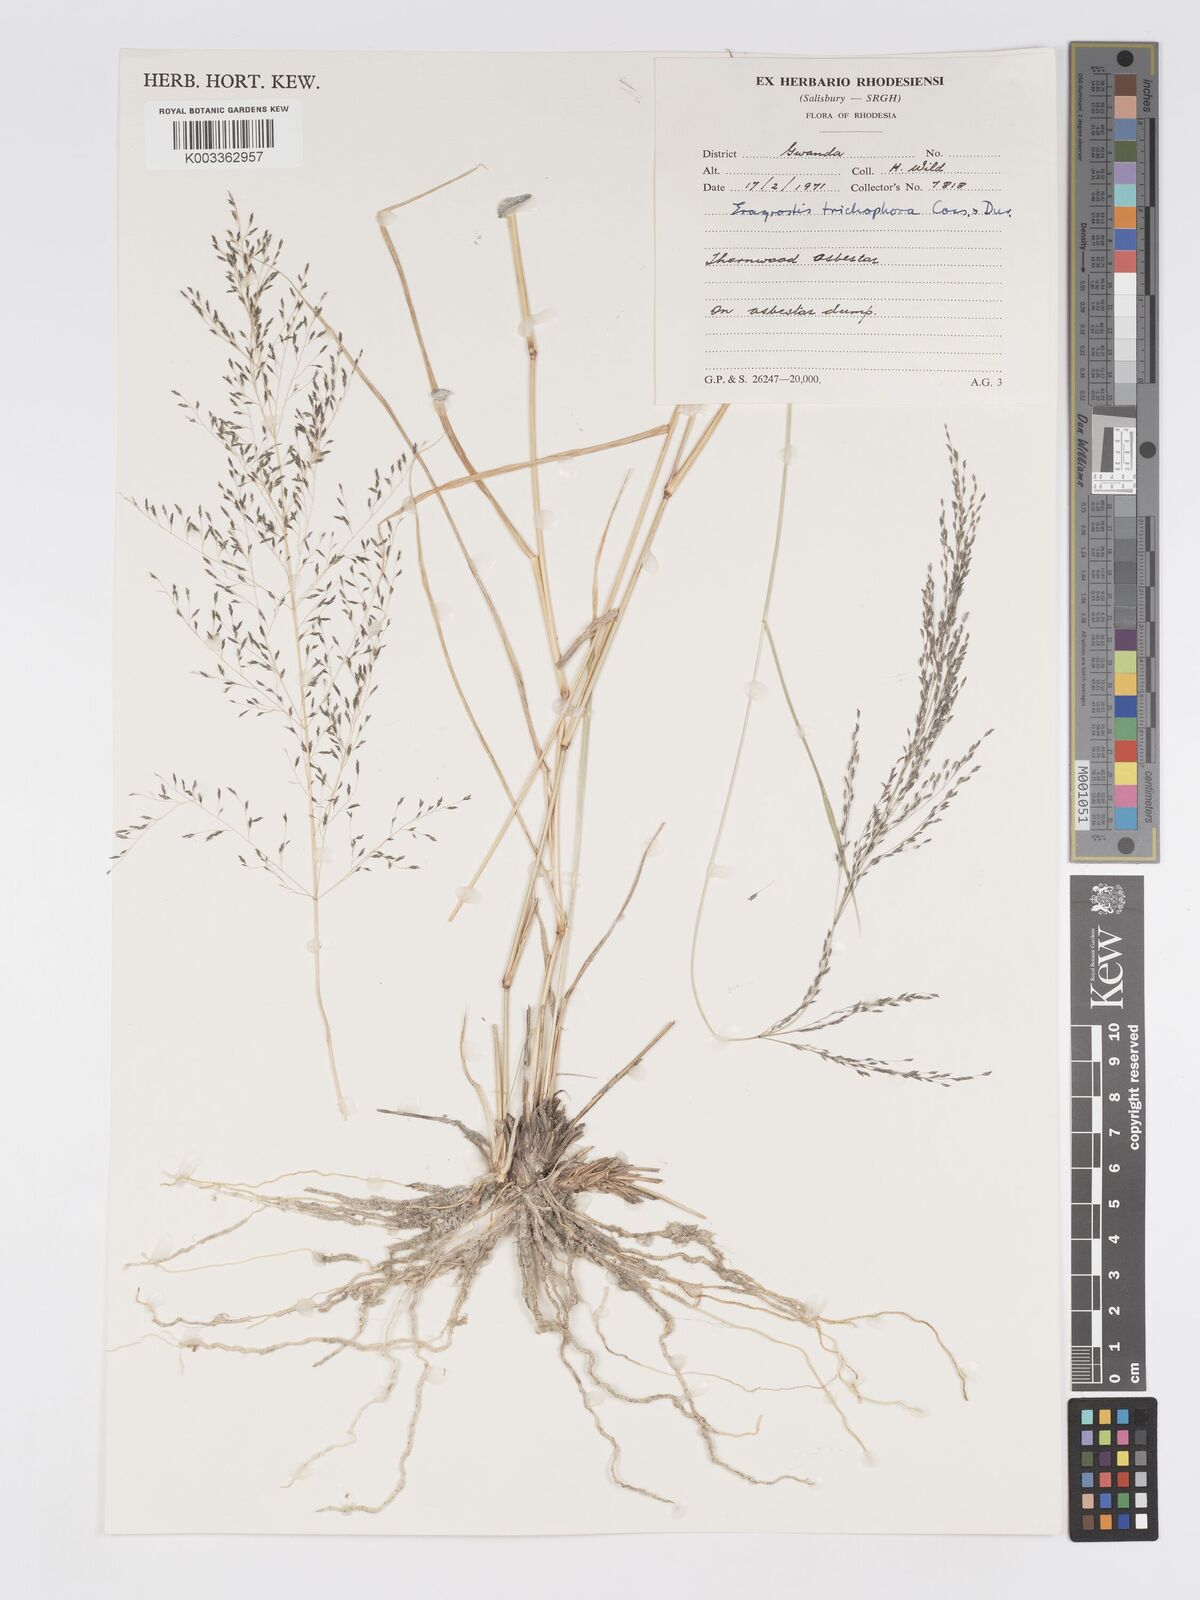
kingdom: Plantae
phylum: Tracheophyta
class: Liliopsida
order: Poales
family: Poaceae
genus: Eragrostis
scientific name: Eragrostis cylindriflora
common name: Cylinderflower lovegrass
